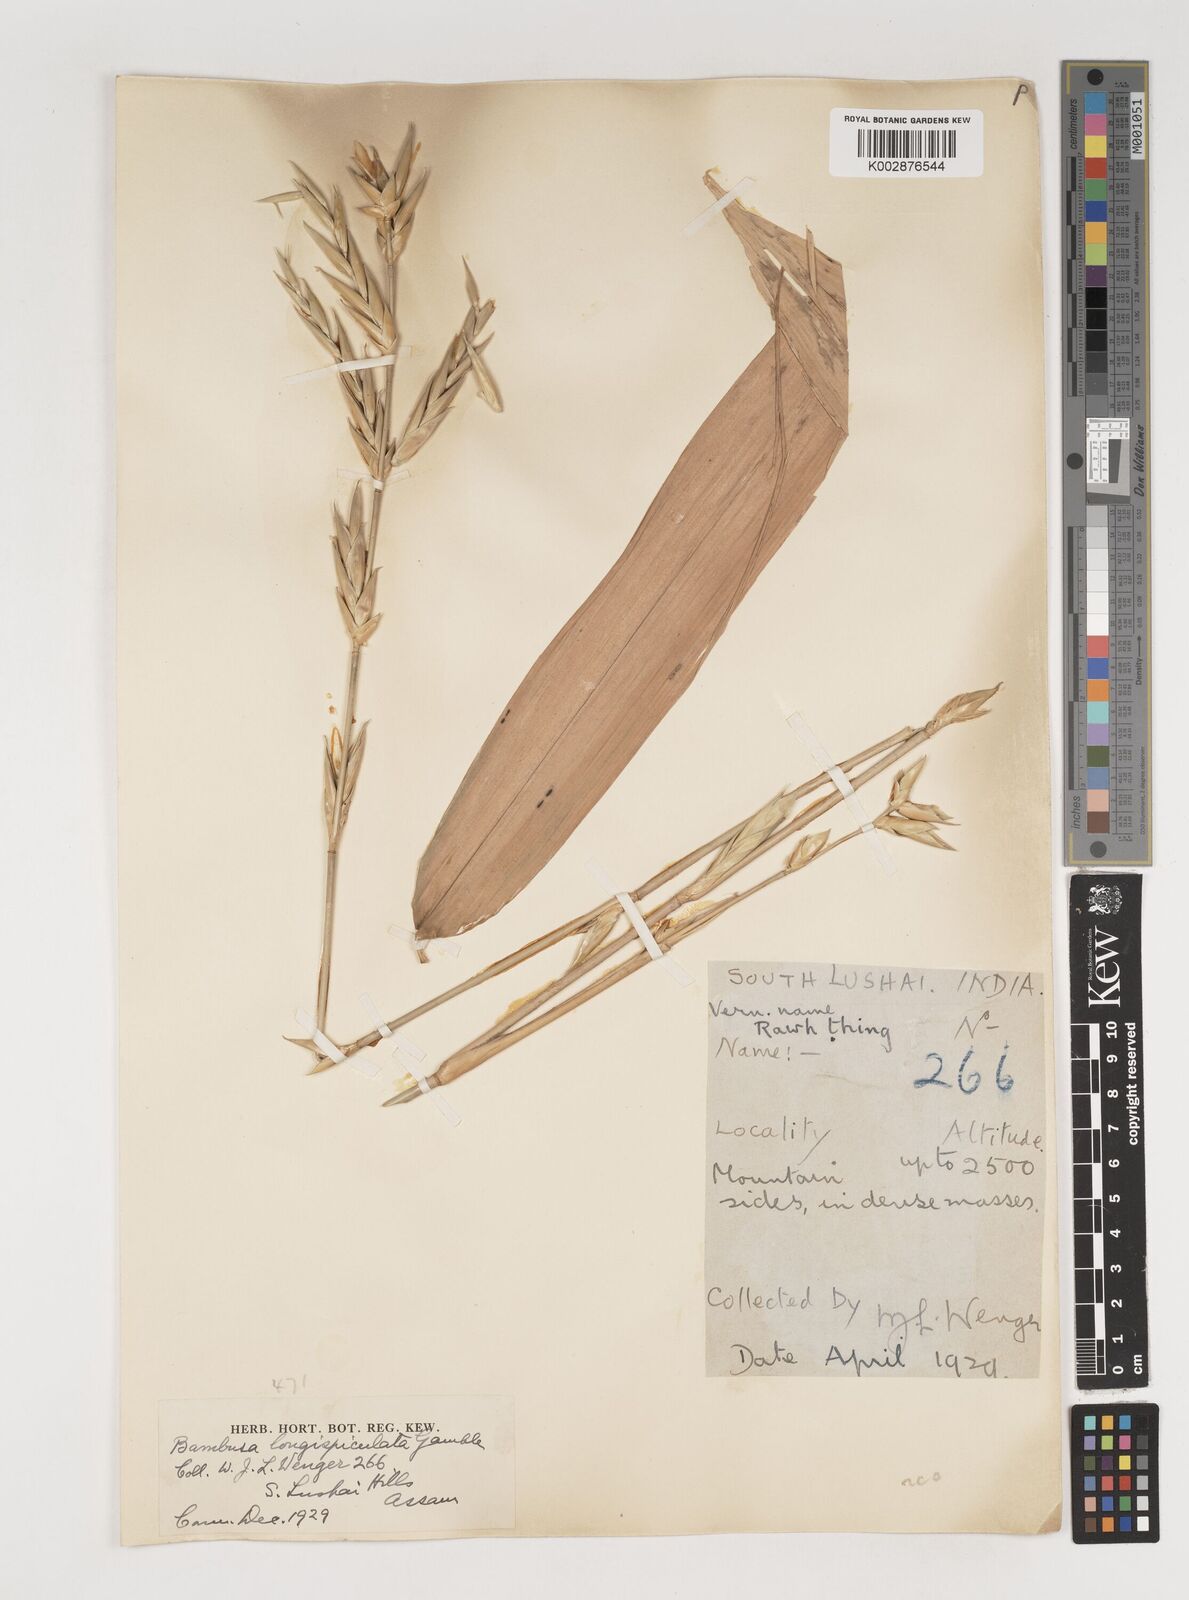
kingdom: Plantae
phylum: Tracheophyta
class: Liliopsida
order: Poales
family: Poaceae
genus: Bambusa
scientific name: Bambusa longispiculata
